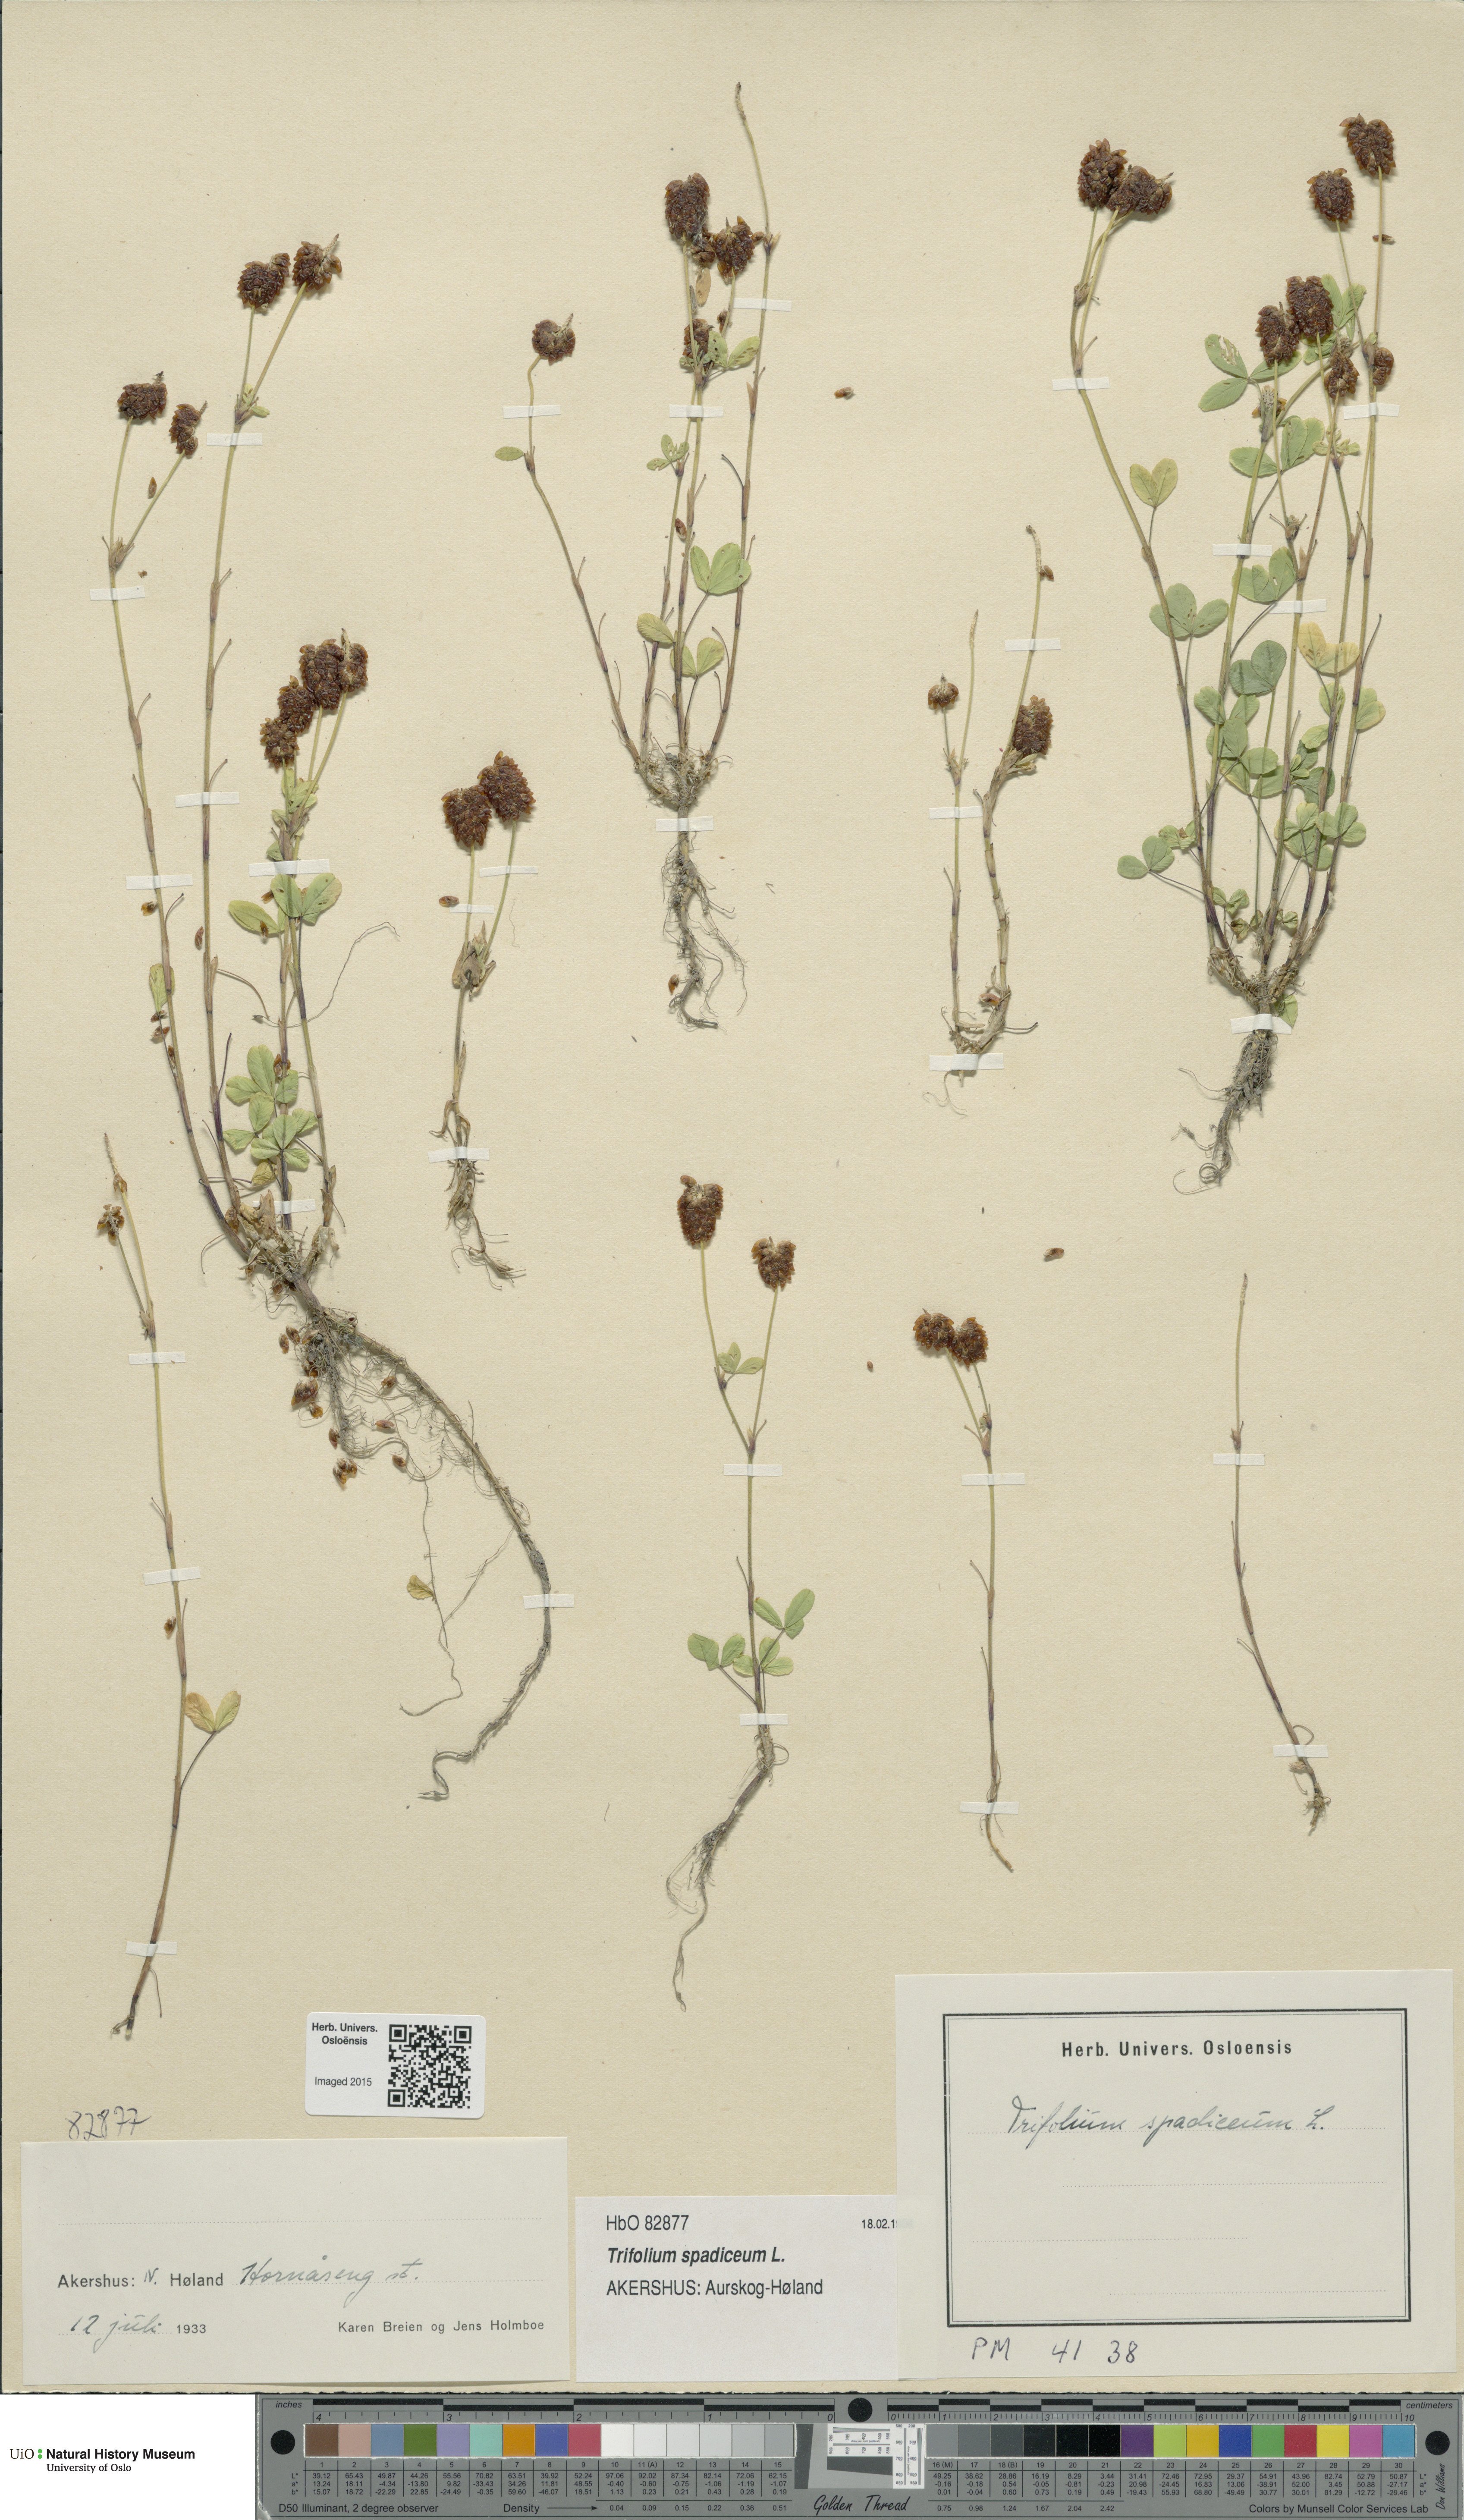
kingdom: Plantae
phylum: Tracheophyta
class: Magnoliopsida
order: Fabales
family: Fabaceae
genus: Trifolium
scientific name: Trifolium spadiceum
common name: Brown moor clover
